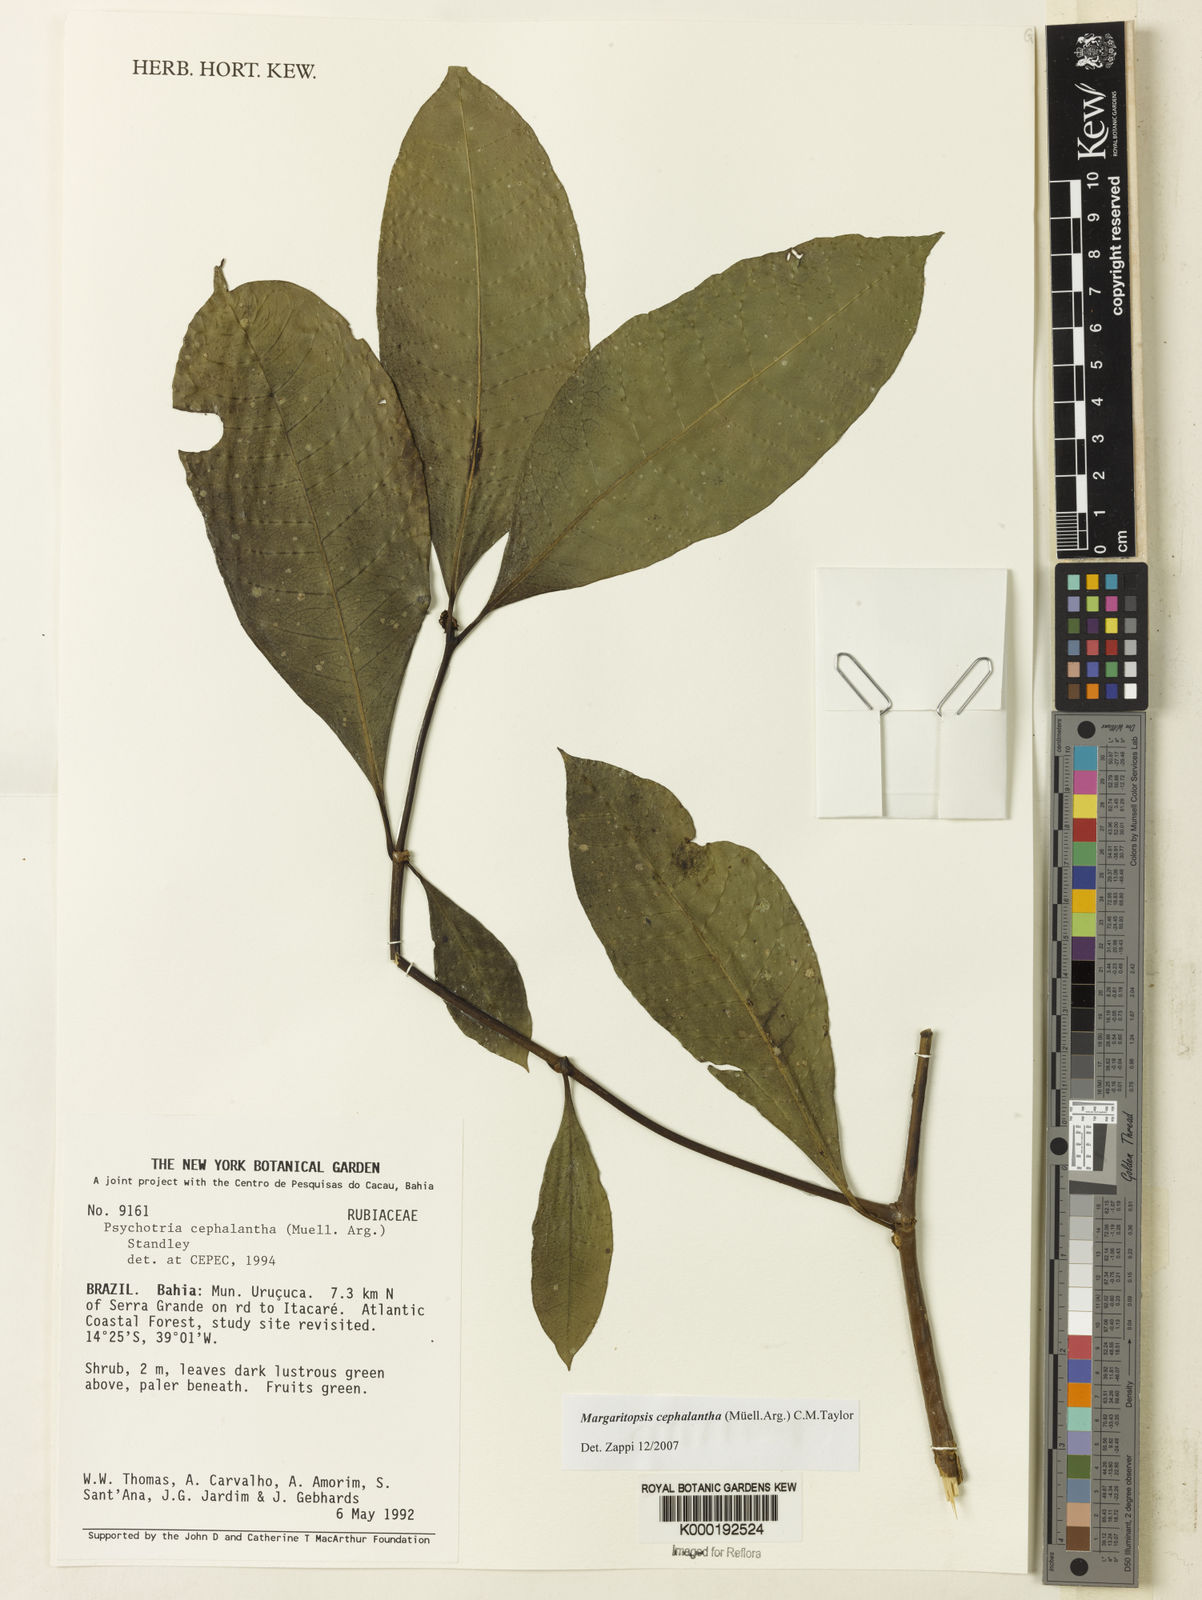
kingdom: Plantae
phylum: Tracheophyta
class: Magnoliopsida
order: Gentianales
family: Rubiaceae
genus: Eumachia
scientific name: Eumachia cephalantha
